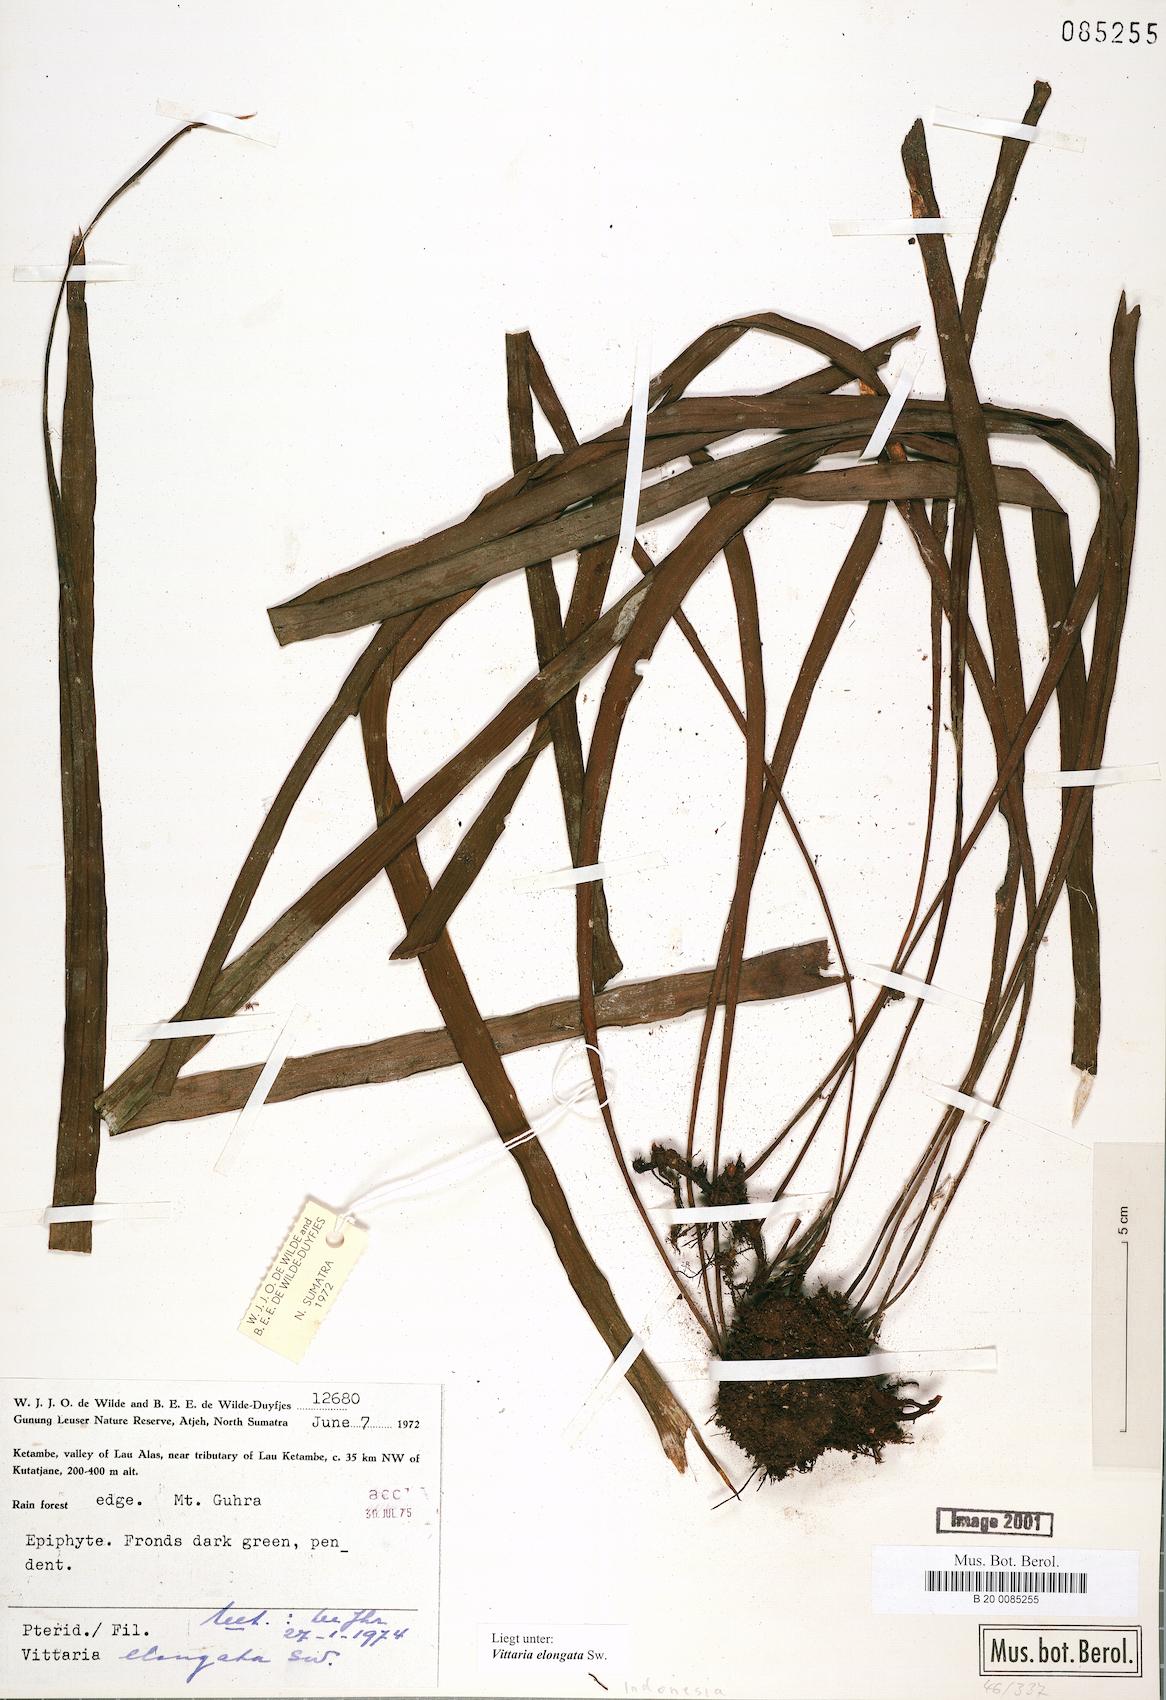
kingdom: Plantae
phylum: Tracheophyta
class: Polypodiopsida
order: Polypodiales
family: Pteridaceae
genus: Haplopteris
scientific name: Haplopteris elongata
